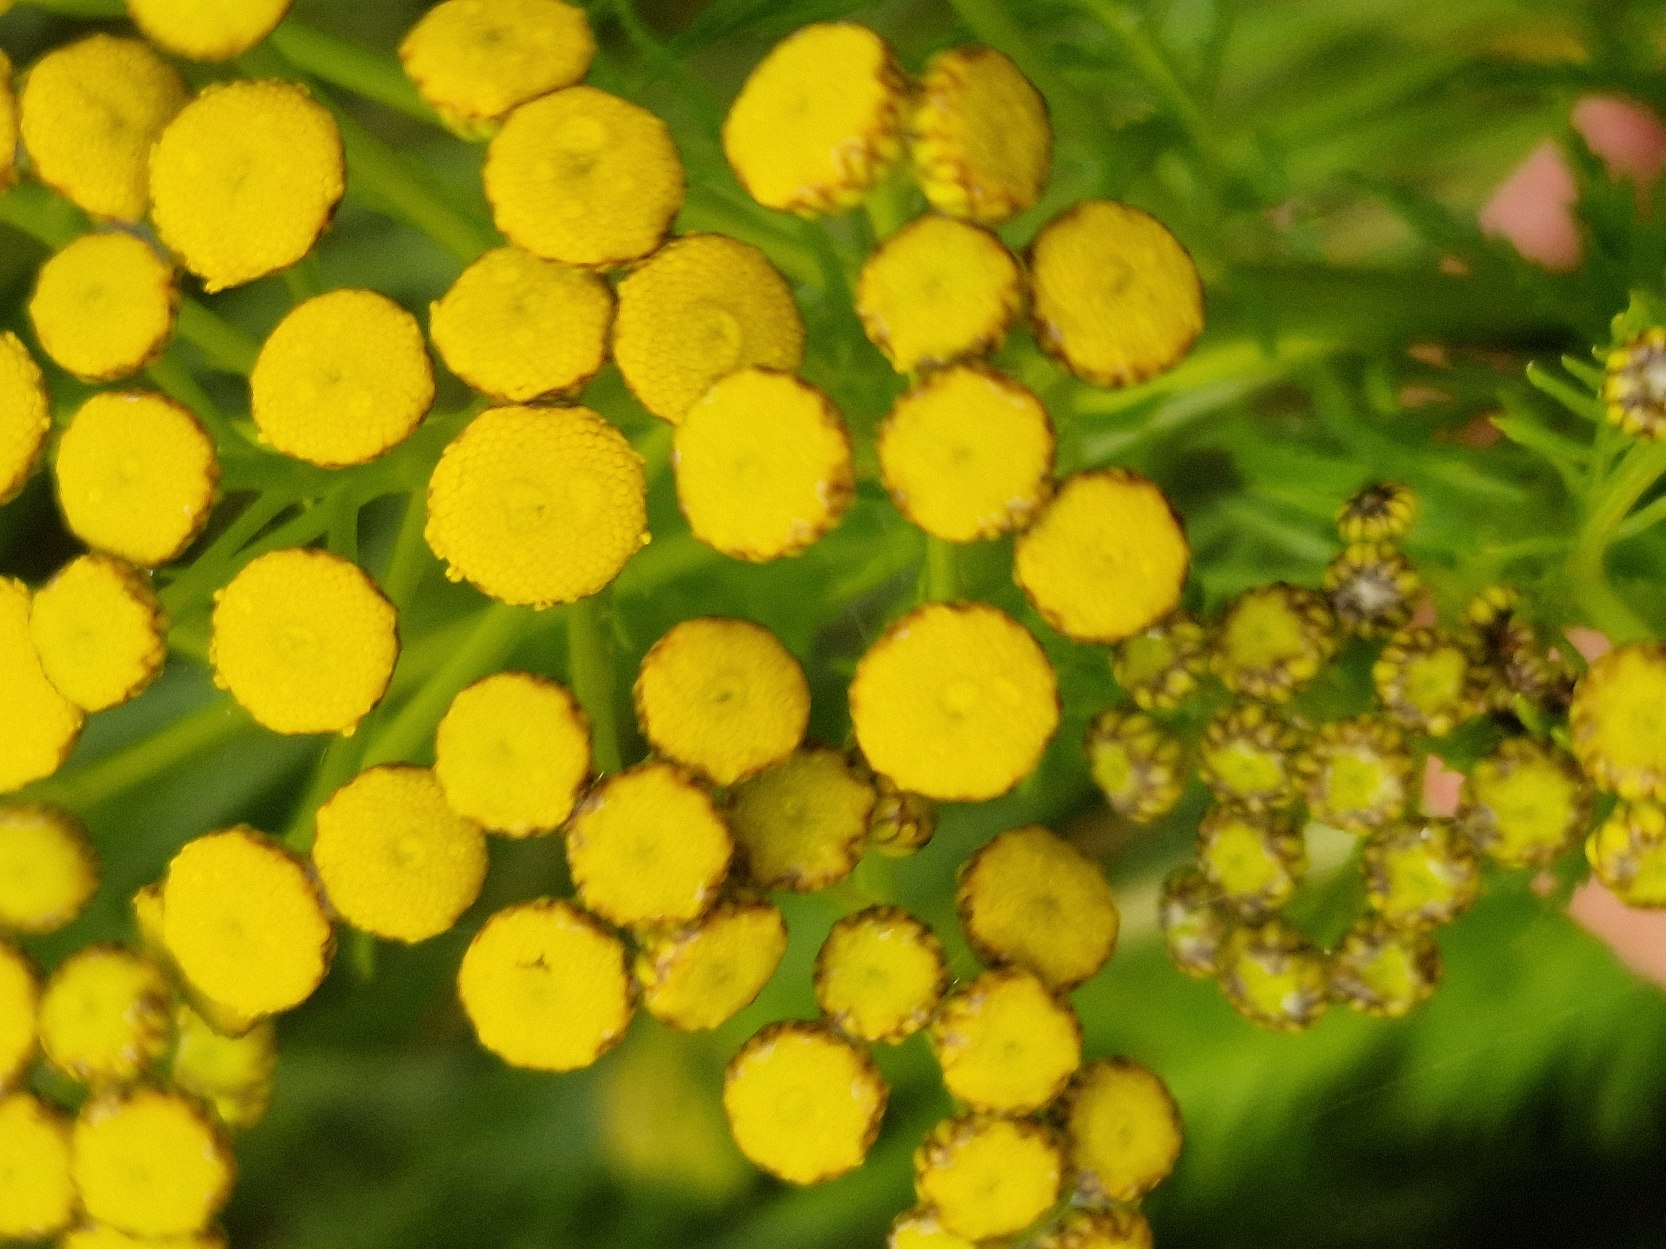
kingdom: Plantae
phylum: Tracheophyta
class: Magnoliopsida
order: Asterales
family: Asteraceae
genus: Tanacetum
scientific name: Tanacetum vulgare
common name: Rejnfan
